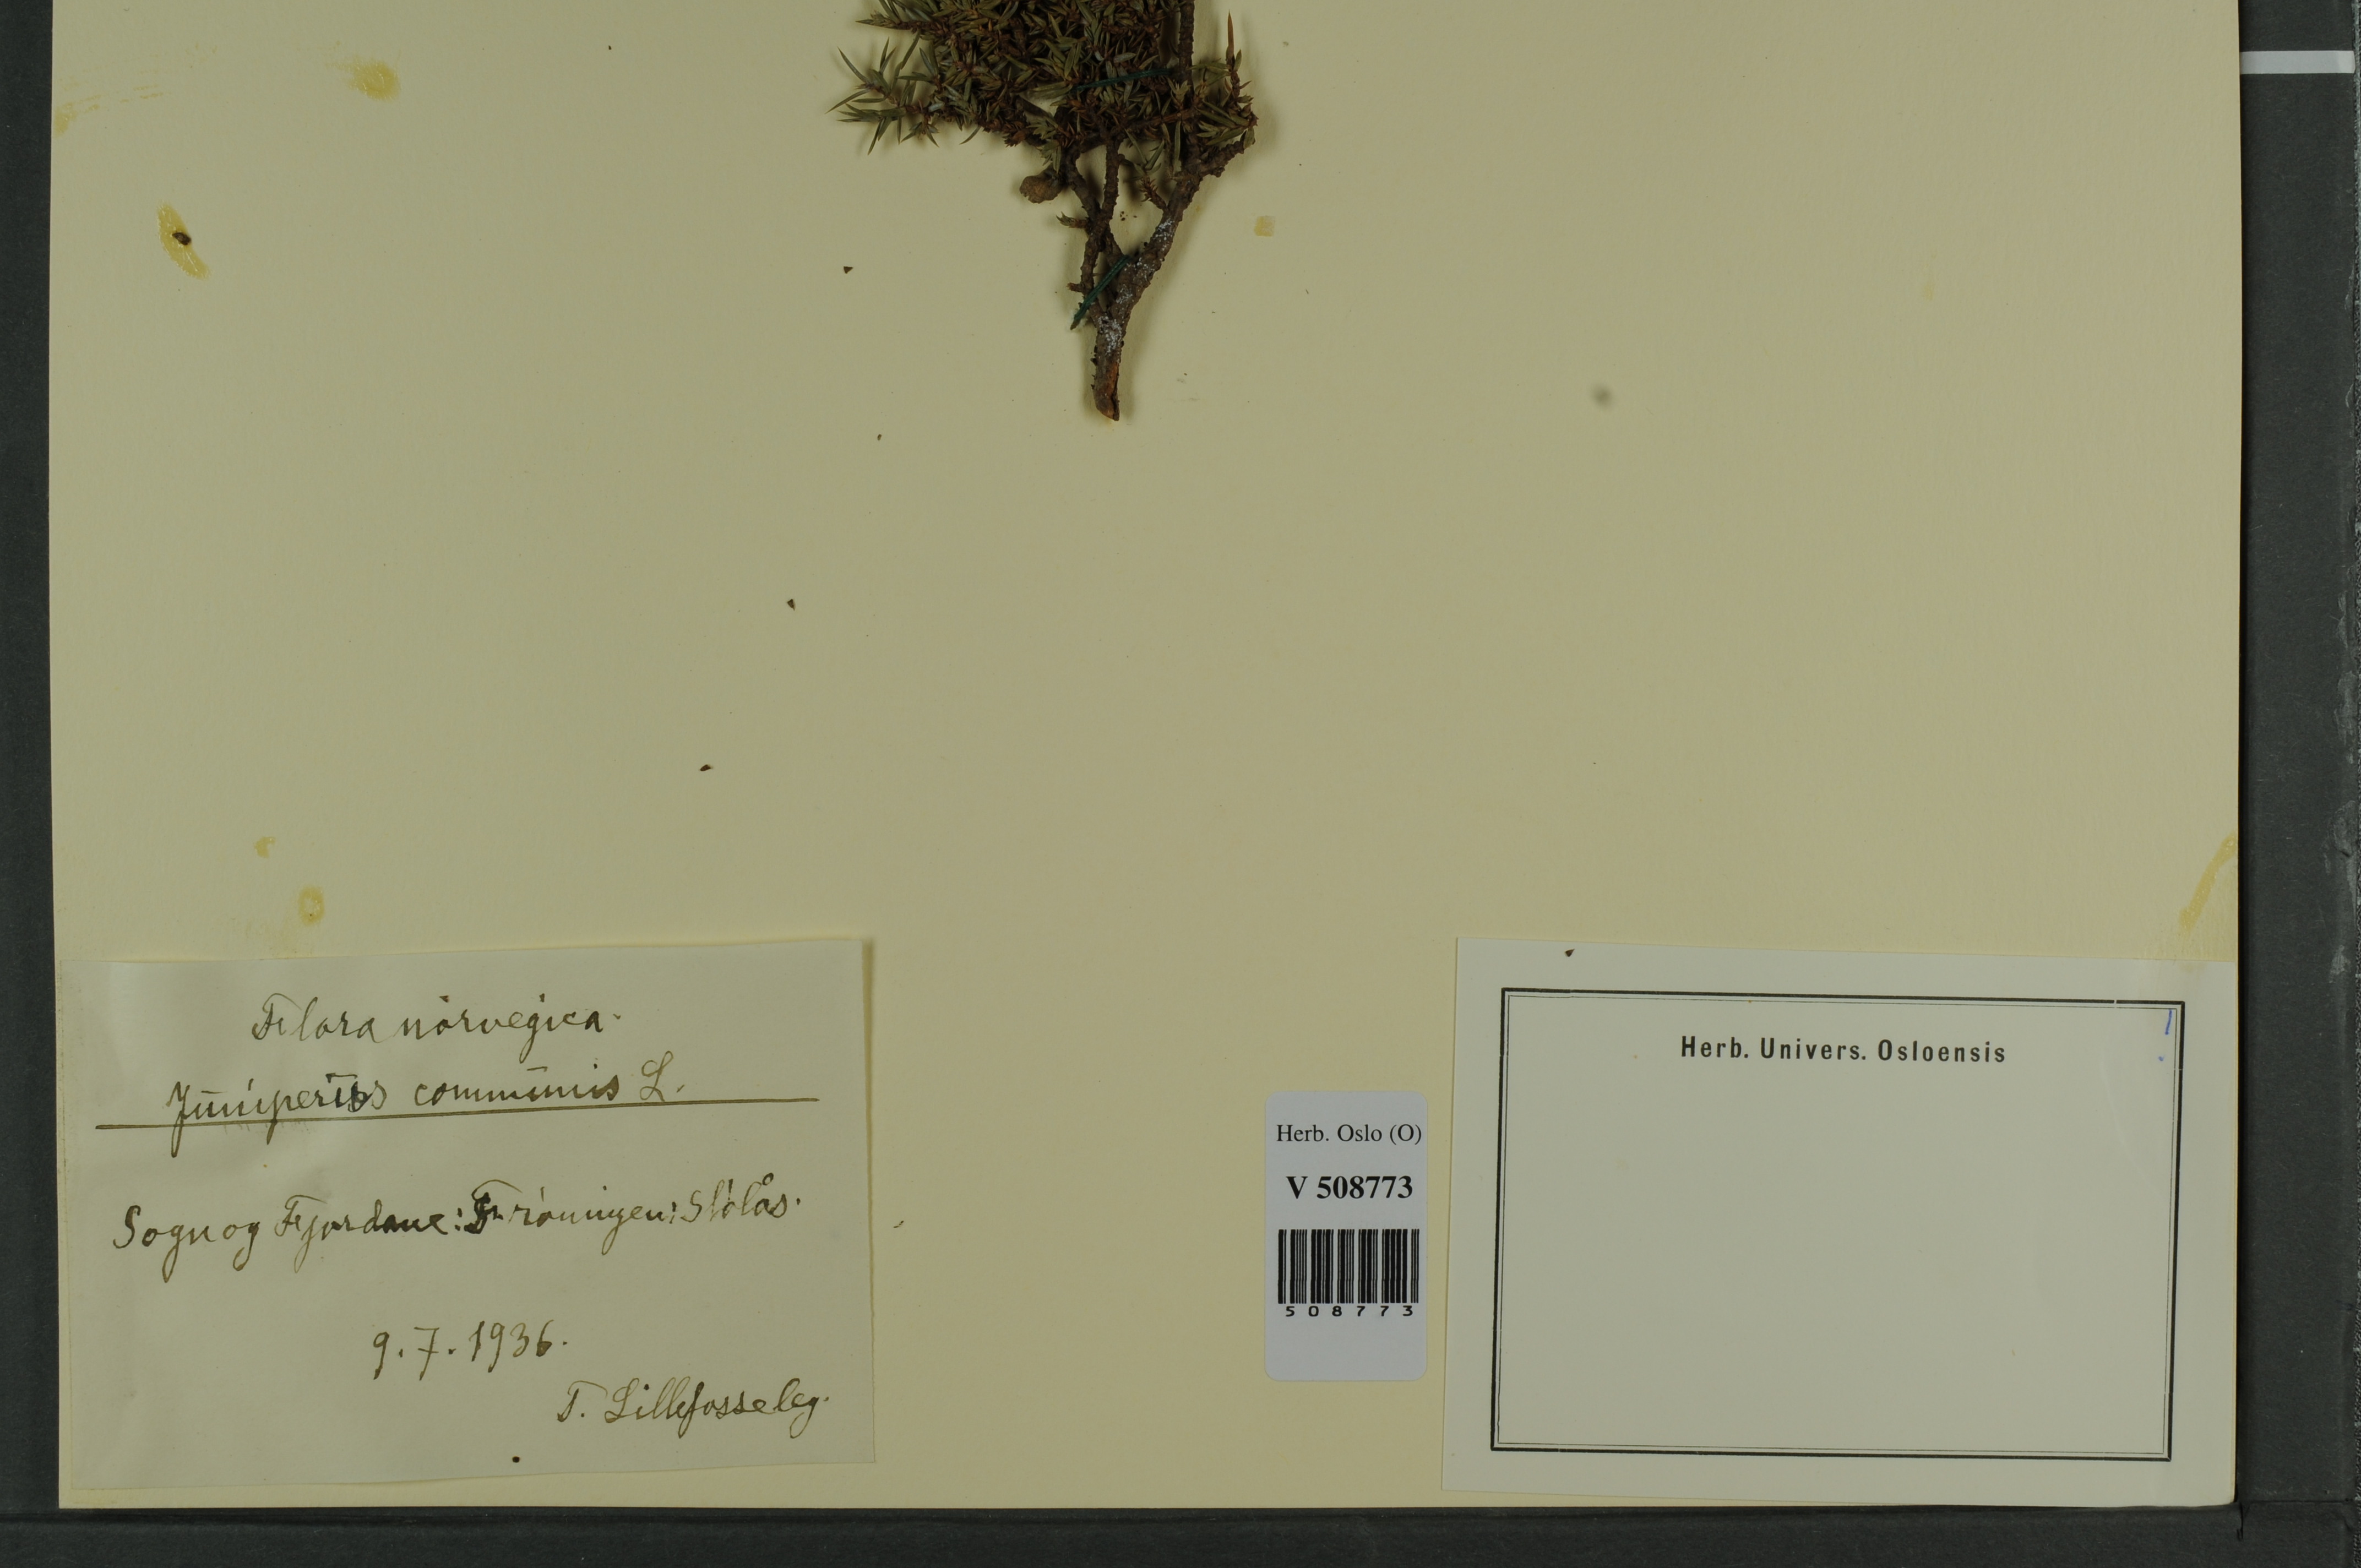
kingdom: Plantae
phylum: Tracheophyta
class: Pinopsida
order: Pinales
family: Cupressaceae
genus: Juniperus
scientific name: Juniperus communis
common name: Common juniper
